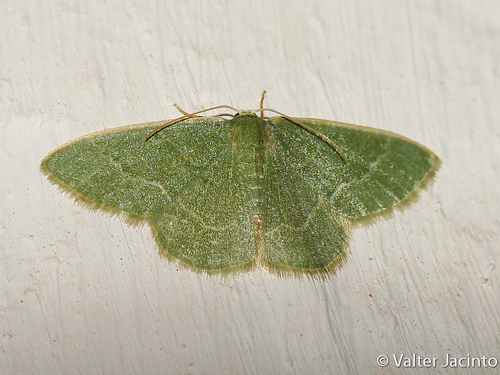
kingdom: Animalia
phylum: Arthropoda
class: Insecta
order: Lepidoptera
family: Geometridae
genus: Chlorissa
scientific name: Chlorissa etruscaria
